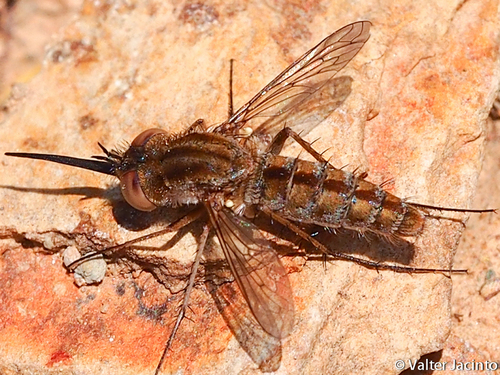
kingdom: Animalia
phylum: Arthropoda
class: Insecta
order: Diptera
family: Bombyliidae
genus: Amictus
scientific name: Amictus variegatus
